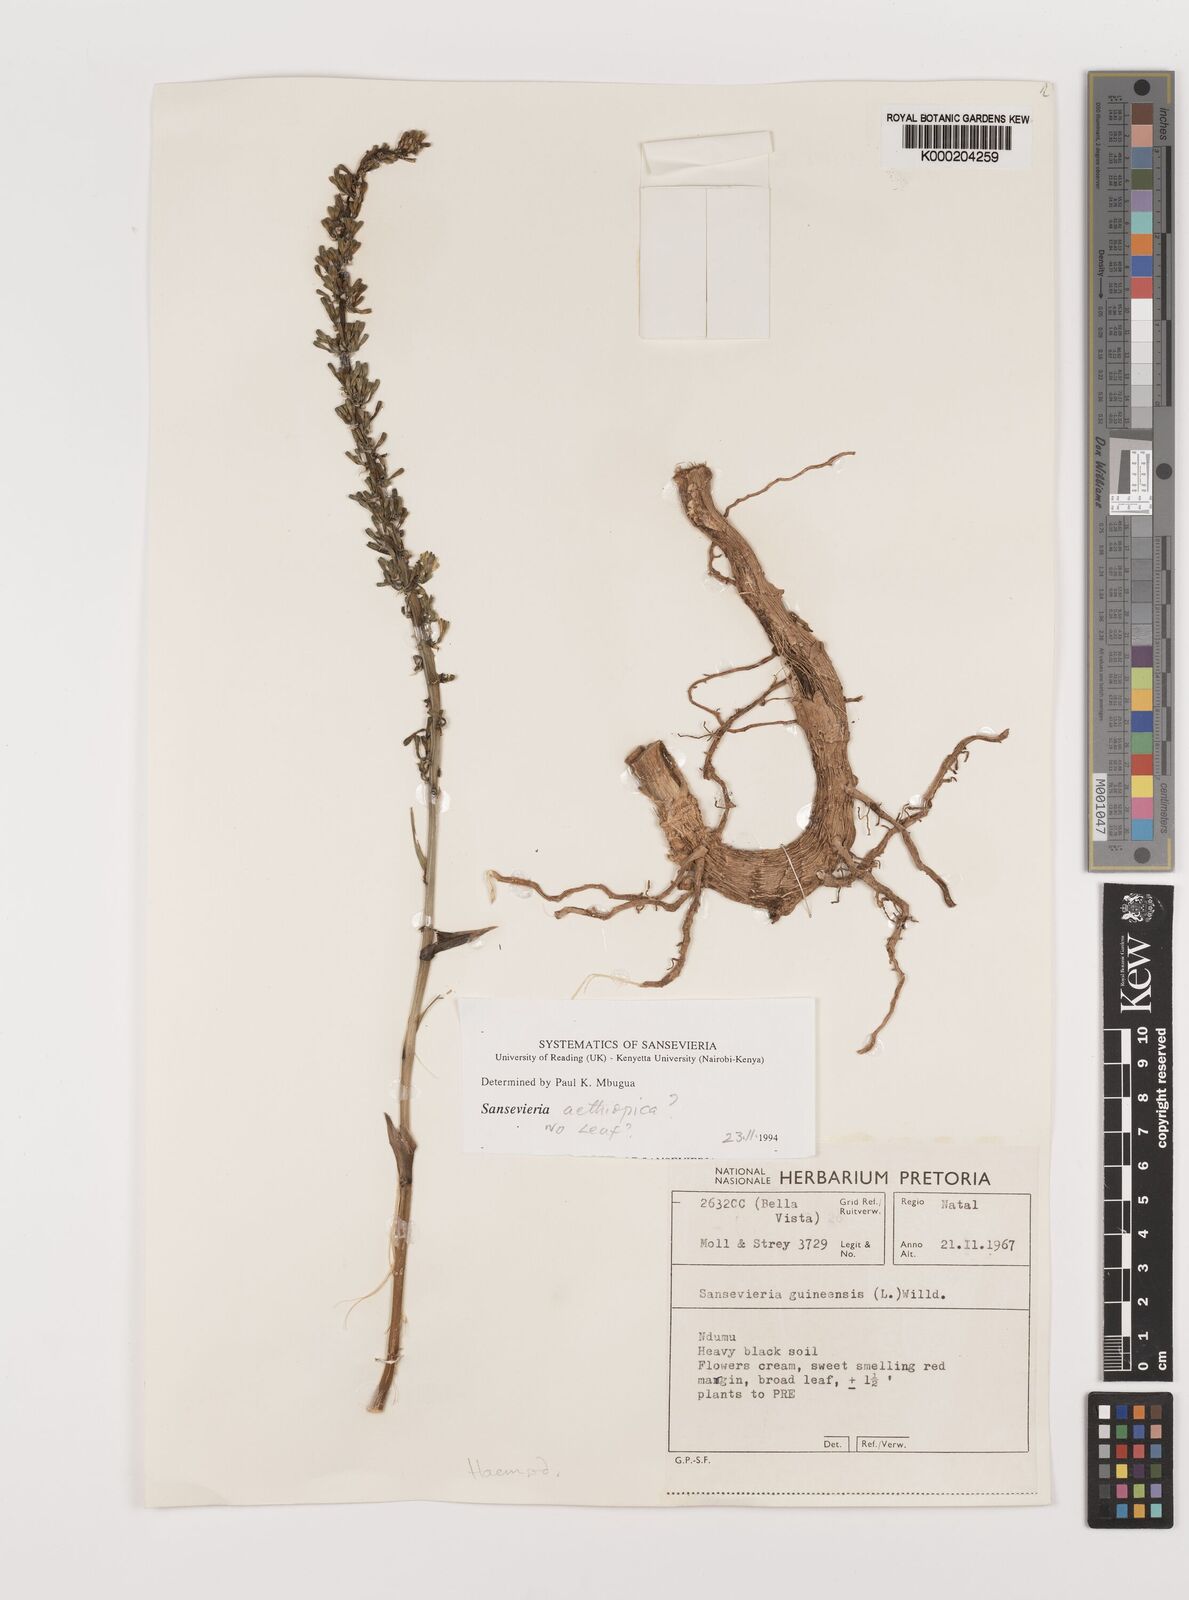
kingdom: Plantae
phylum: Tracheophyta
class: Liliopsida
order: Asparagales
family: Asparagaceae
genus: Dracaena
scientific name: Dracaena hyacinthoides
